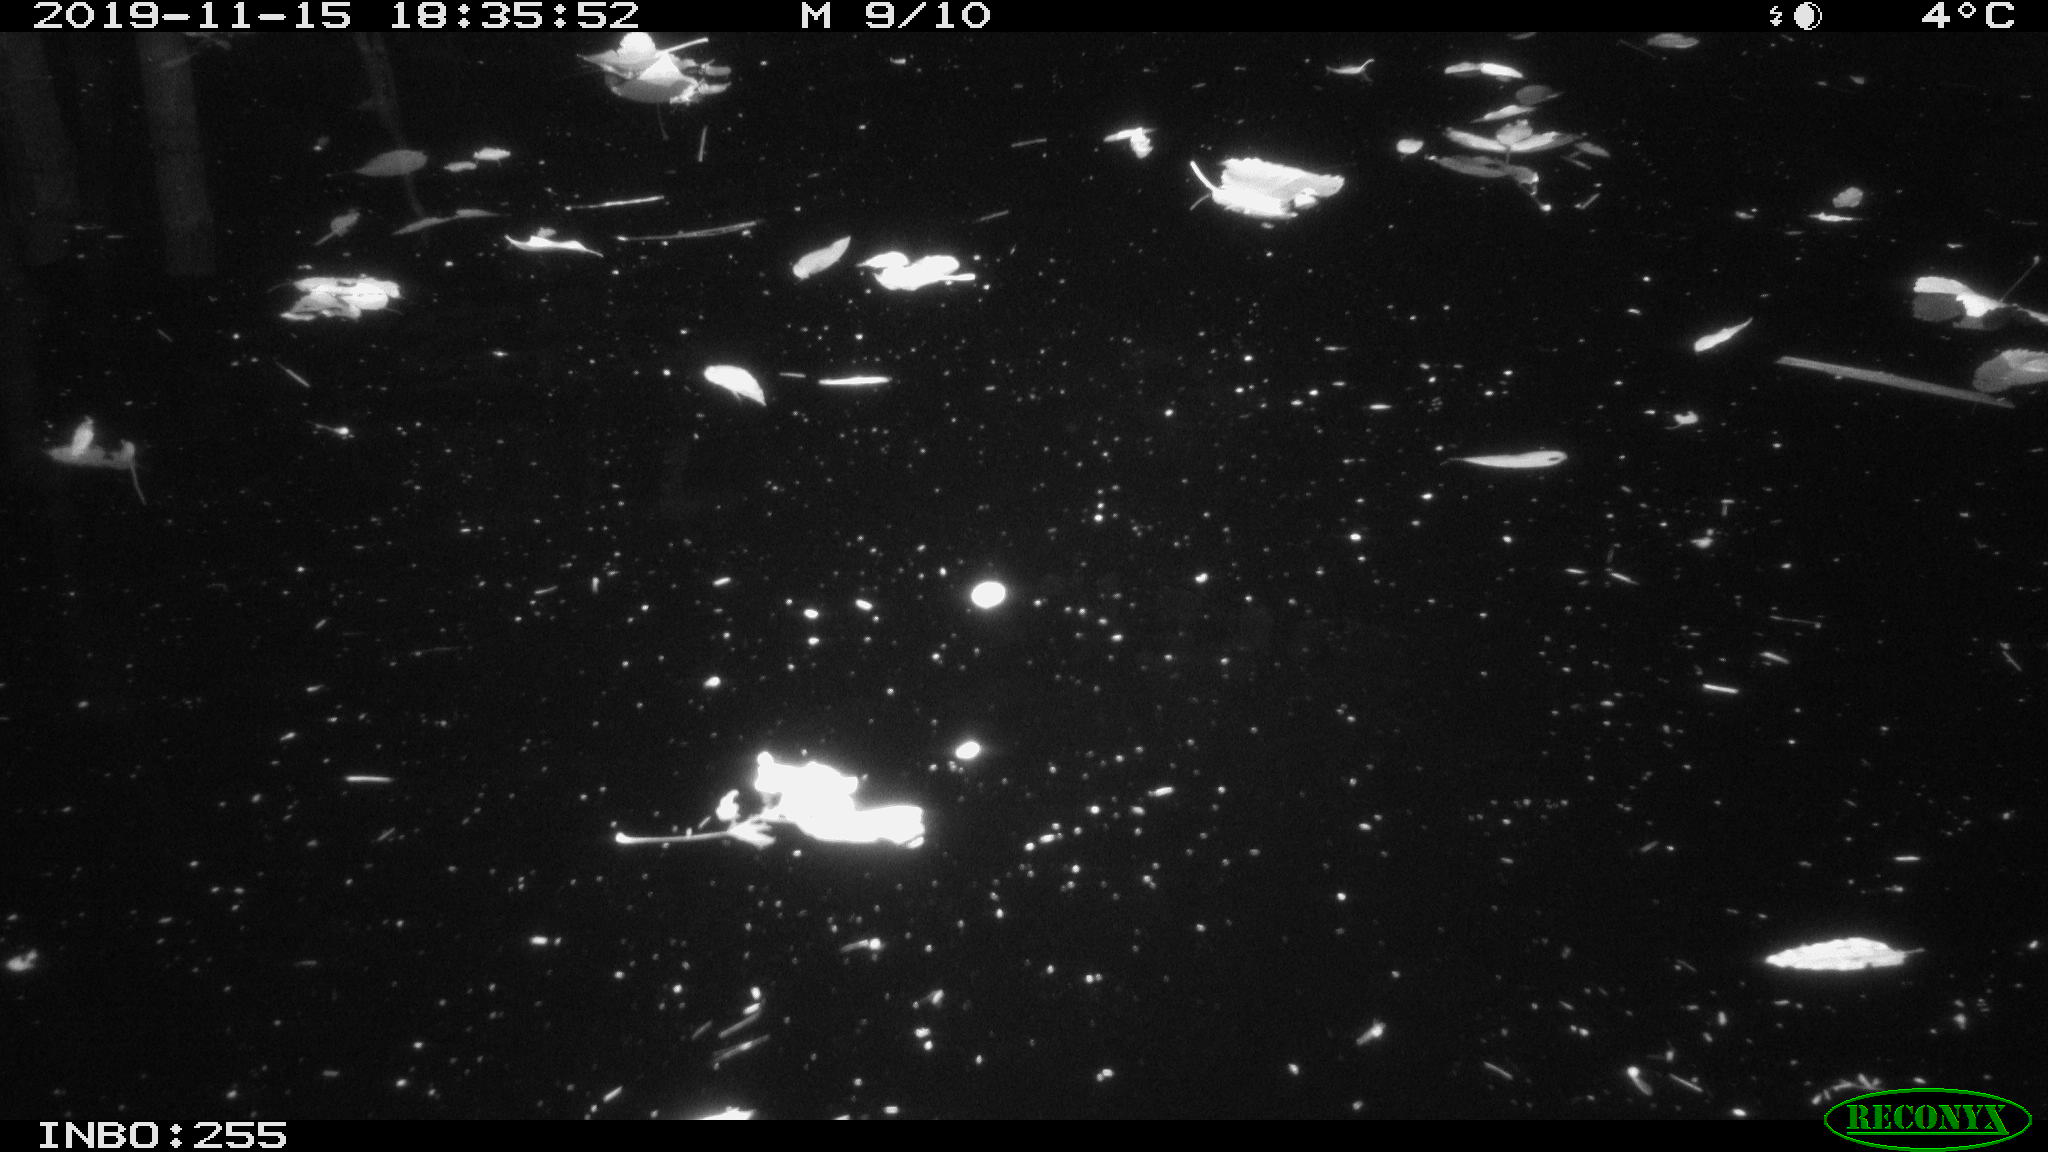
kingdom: Animalia
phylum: Chordata
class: Mammalia
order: Rodentia
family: Muridae
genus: Rattus
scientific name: Rattus norvegicus
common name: Brown rat
